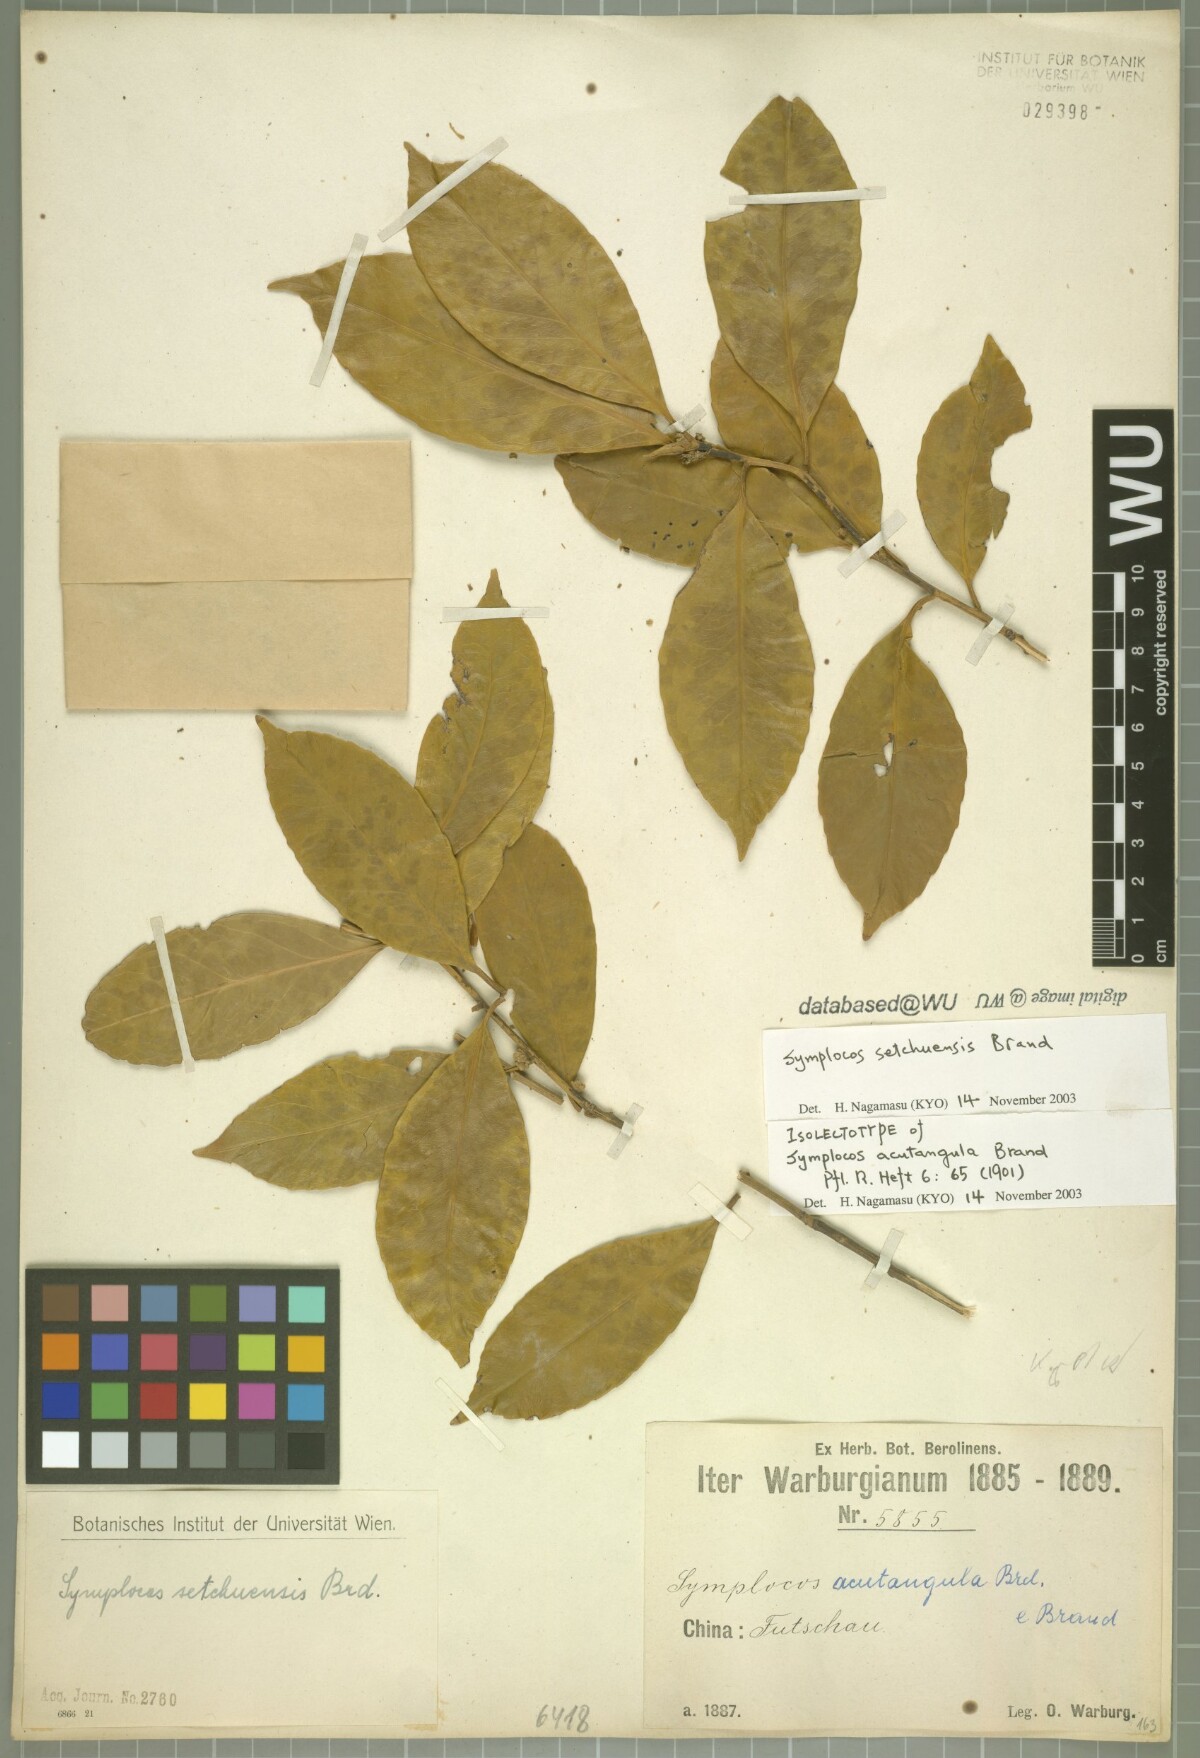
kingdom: Plantae
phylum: Tracheophyta
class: Magnoliopsida
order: Ericales
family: Symplocaceae
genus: Symplocos
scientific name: Symplocos setchuensis
